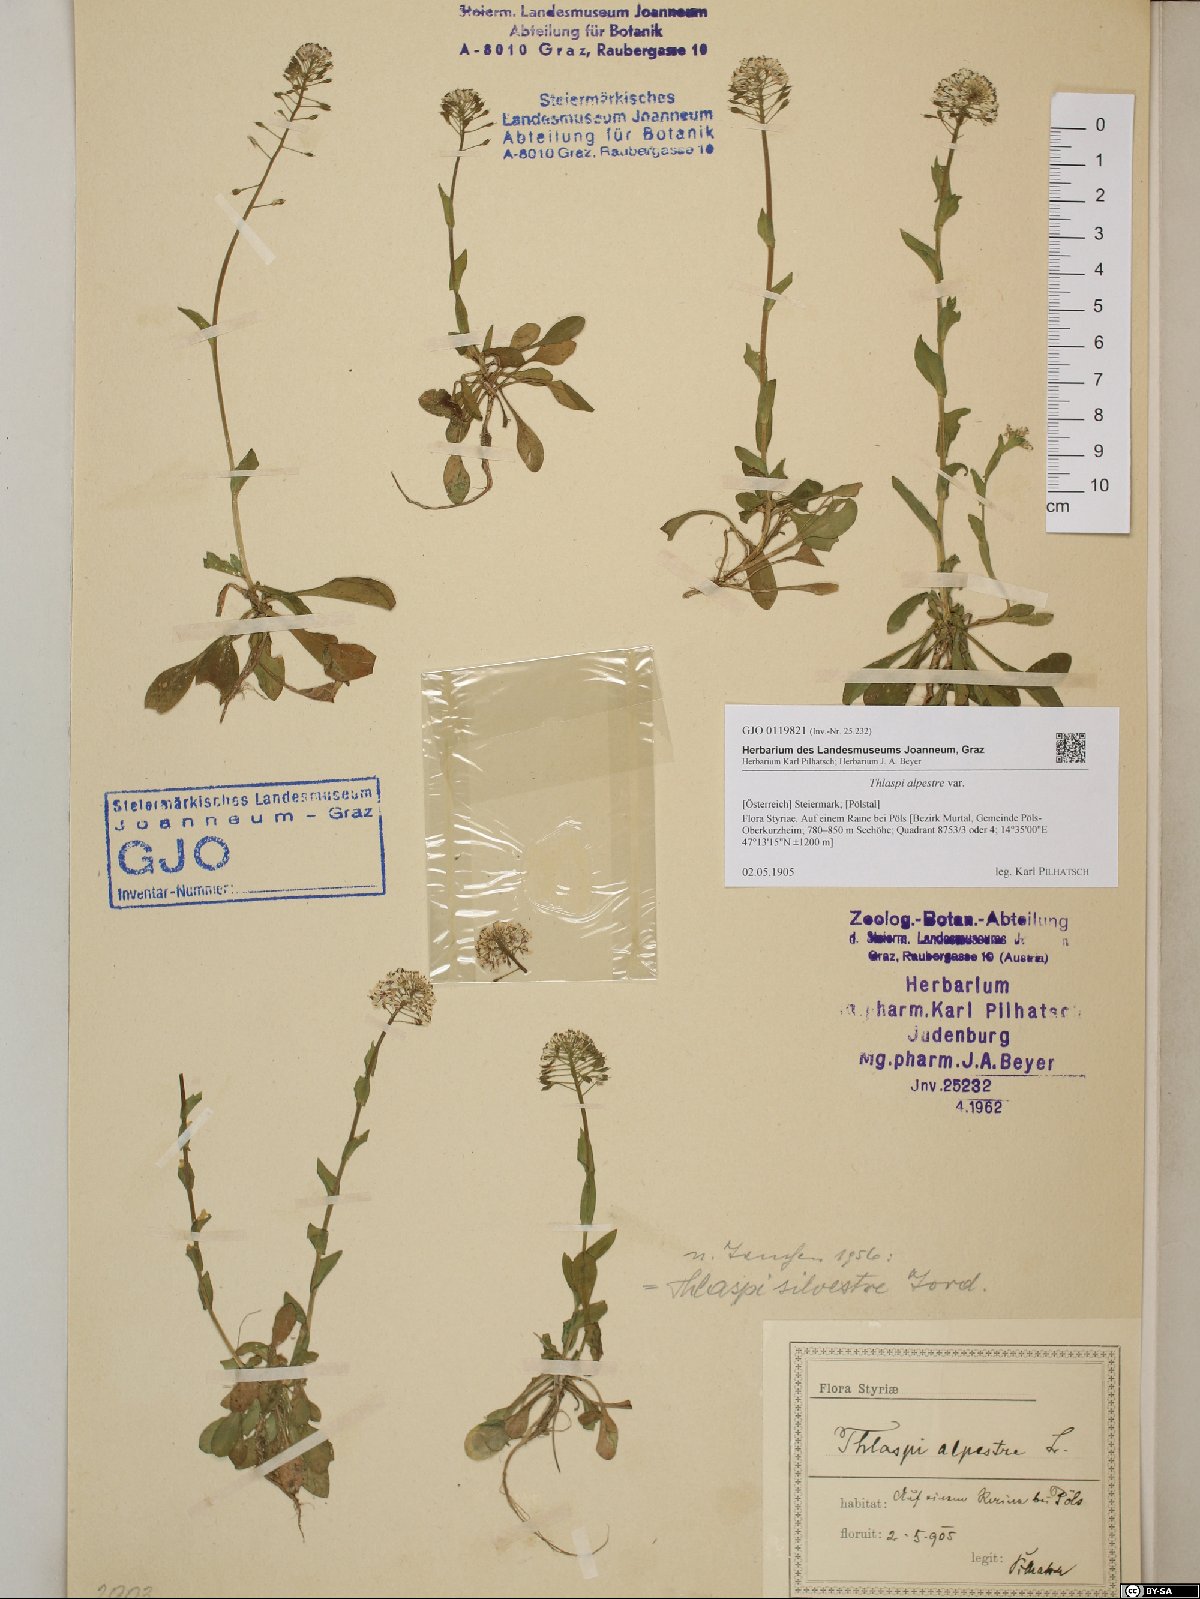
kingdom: Plantae
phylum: Tracheophyta
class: Magnoliopsida
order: Brassicales
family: Brassicaceae
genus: Noccaea
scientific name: Noccaea caerulescens
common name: Alpine pennycress
